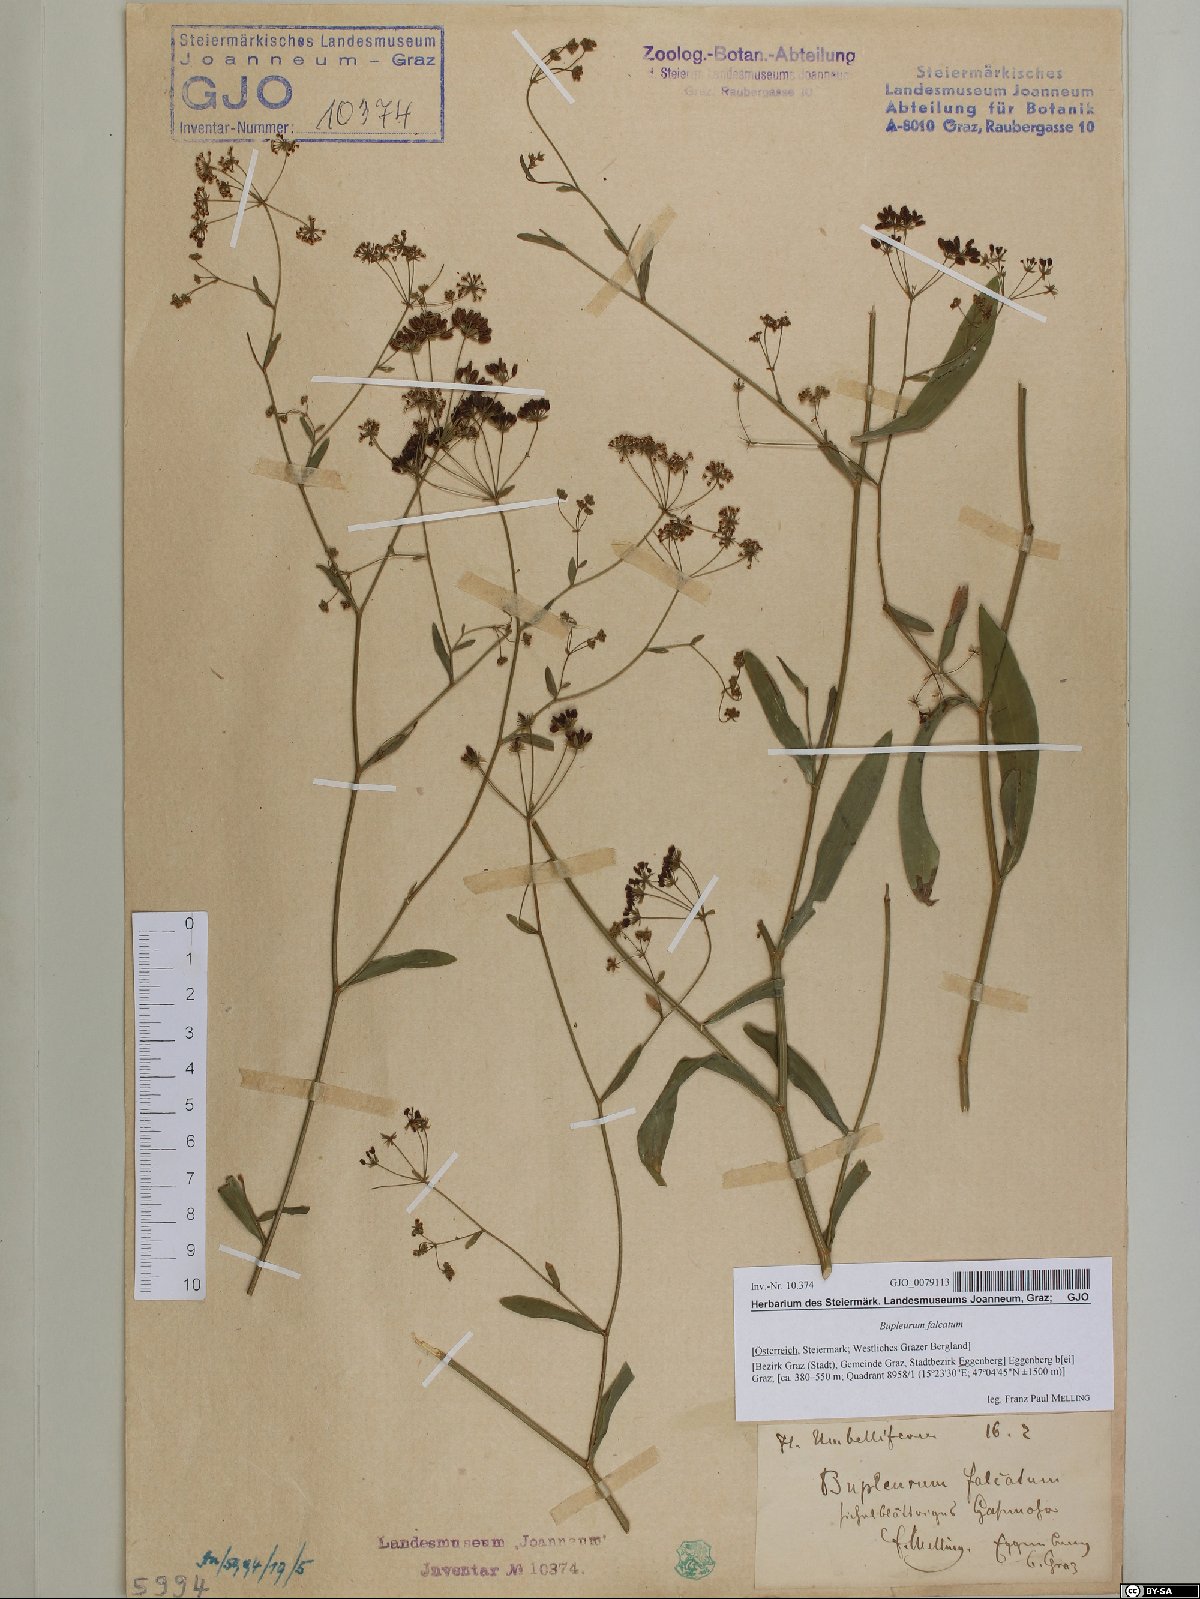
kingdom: Plantae
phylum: Tracheophyta
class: Magnoliopsida
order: Apiales
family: Apiaceae
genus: Bupleurum
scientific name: Bupleurum falcatum
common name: Sickle-leaved hare's-ear
